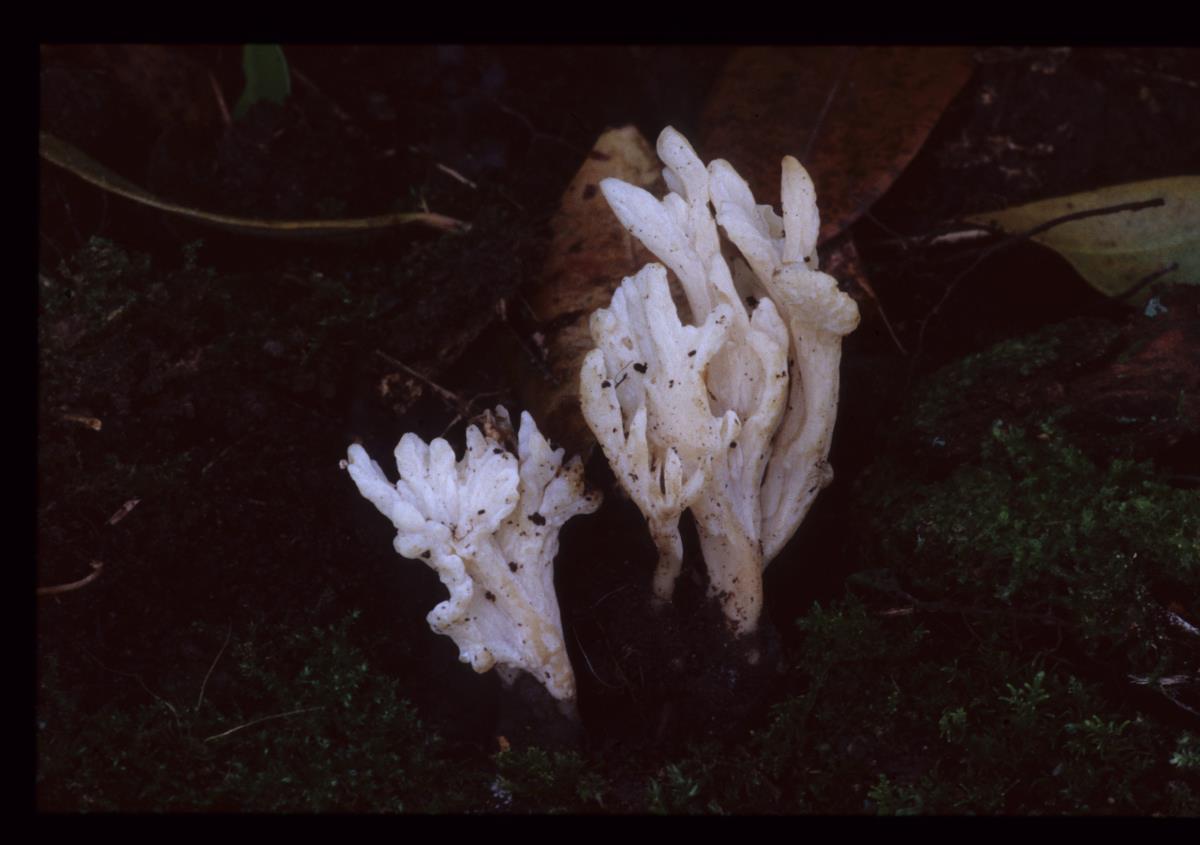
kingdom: Fungi
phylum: Basidiomycota
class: Agaricomycetes
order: Cantharellales
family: Hydnaceae
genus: Clavulina
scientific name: Clavulina
